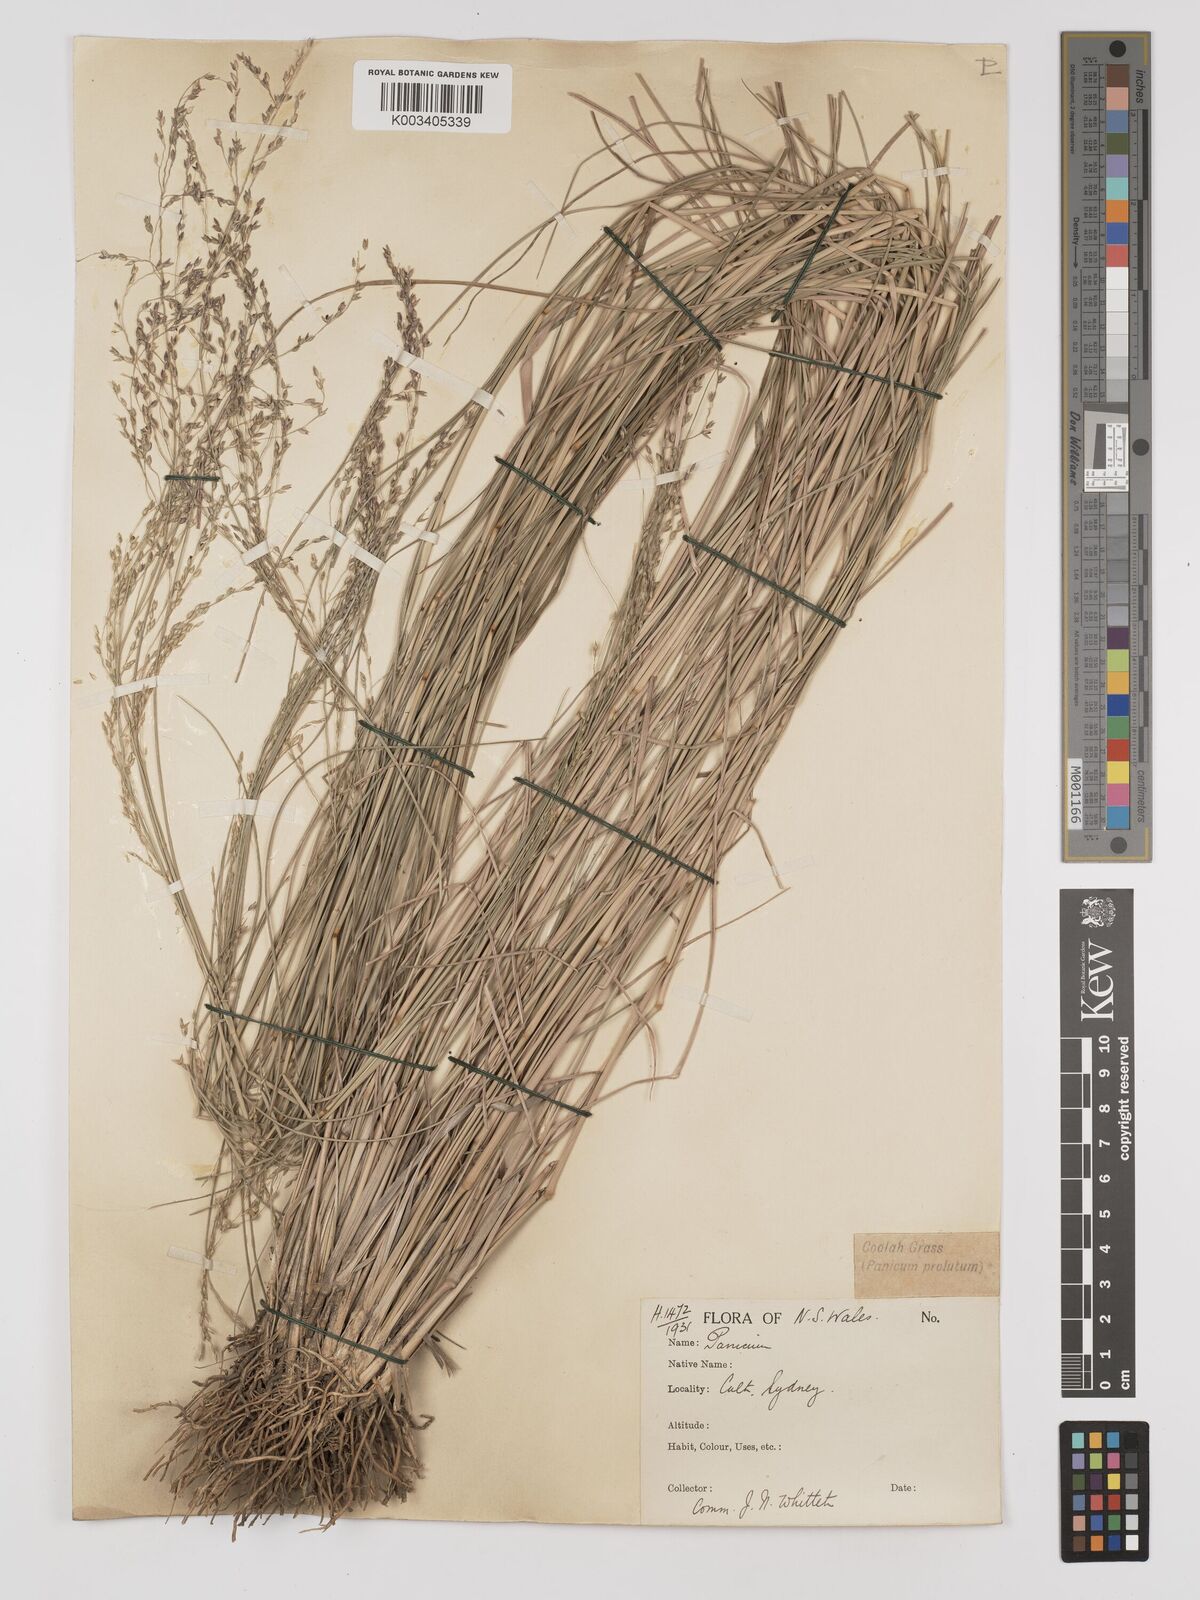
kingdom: Plantae
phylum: Tracheophyta
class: Liliopsida
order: Poales
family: Poaceae
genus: Panicum
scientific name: Panicum coloratum
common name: Kleingrass
